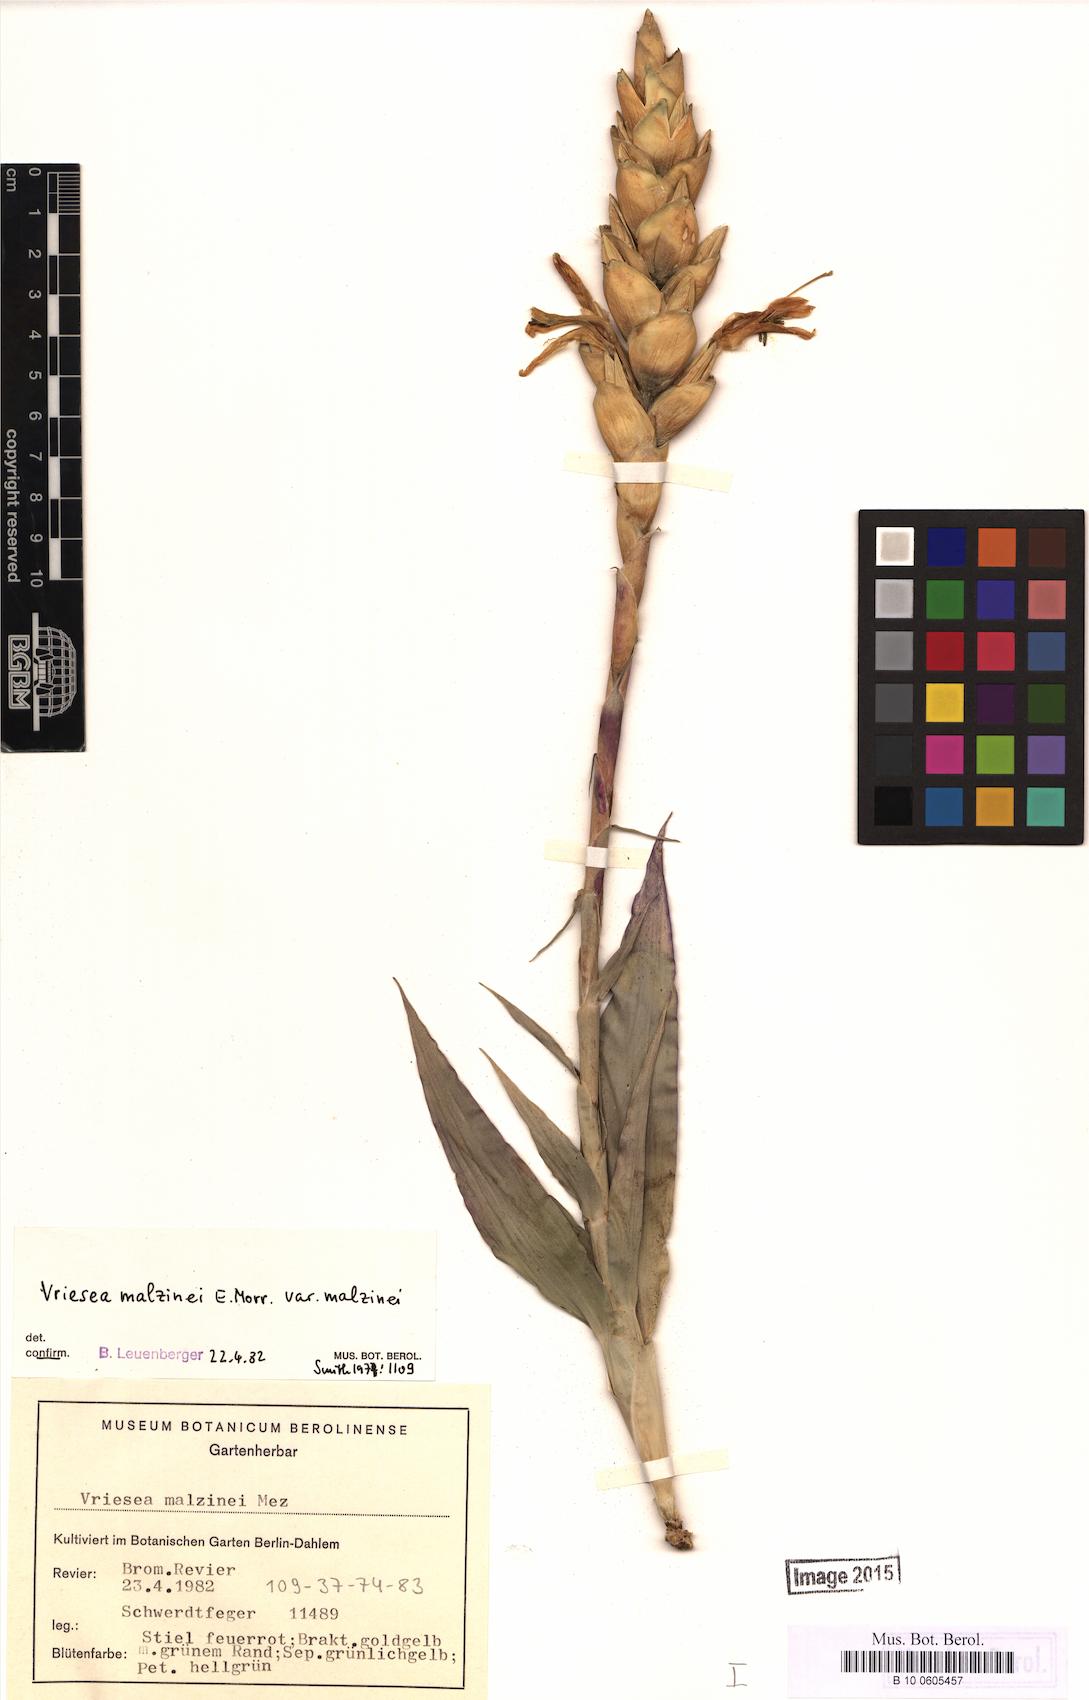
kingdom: Plantae
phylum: Tracheophyta
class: Liliopsida
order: Poales
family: Bromeliaceae
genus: Tillandsia
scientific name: Tillandsia malzinei
